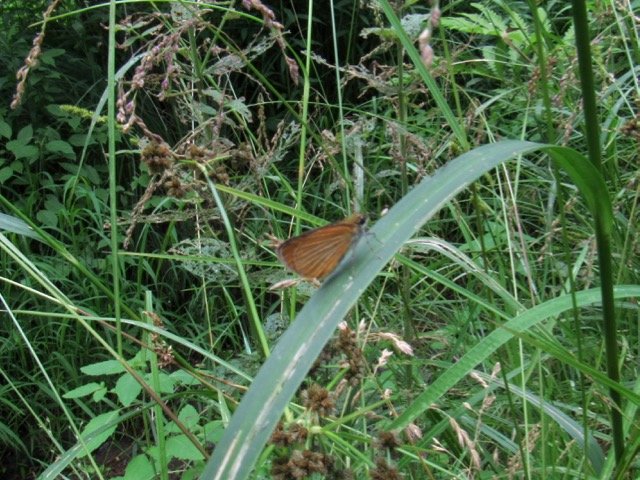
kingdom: Animalia
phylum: Arthropoda
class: Insecta
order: Lepidoptera
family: Hesperiidae
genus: Ancyloxypha
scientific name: Ancyloxypha numitor
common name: Least Skipper
